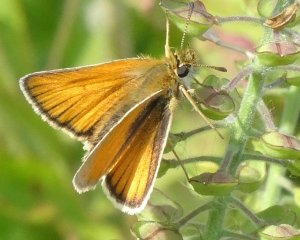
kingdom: Animalia
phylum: Arthropoda
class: Insecta
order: Lepidoptera
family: Hesperiidae
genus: Thymelicus
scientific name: Thymelicus lineola
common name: European Skipper
